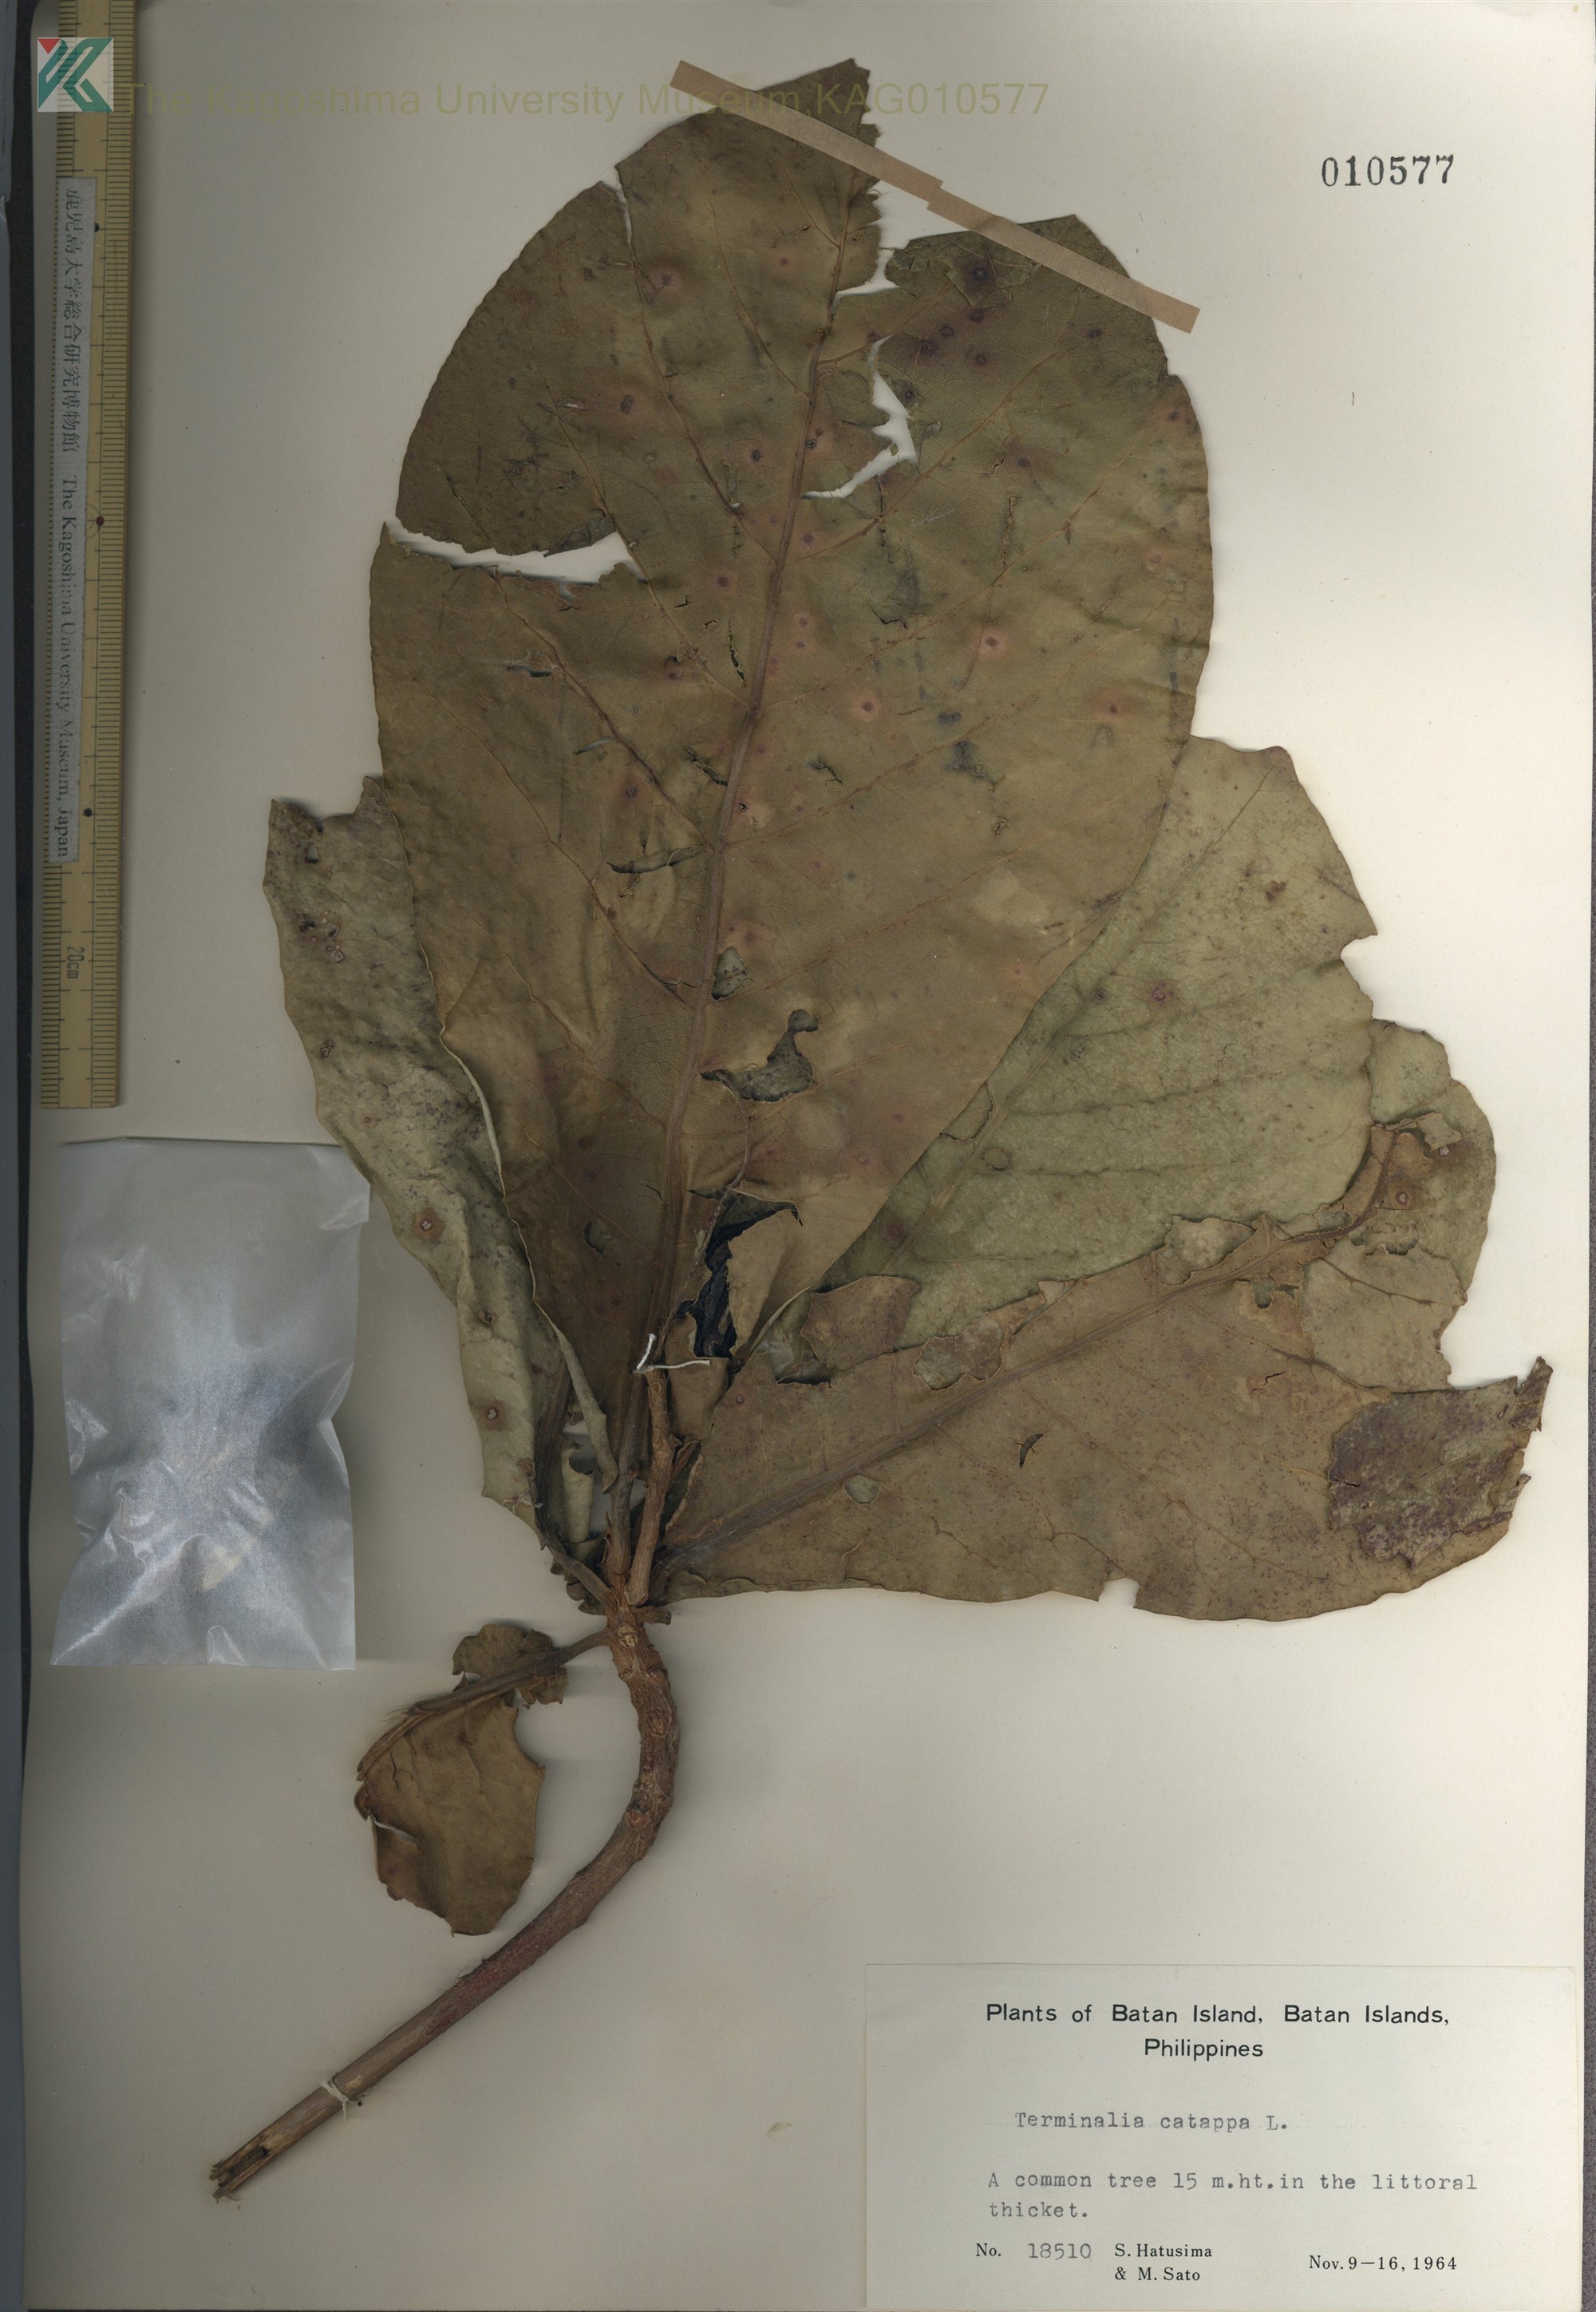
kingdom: Plantae
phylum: Tracheophyta
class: Magnoliopsida
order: Myrtales
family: Combretaceae
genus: Terminalia
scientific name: Terminalia catappa
